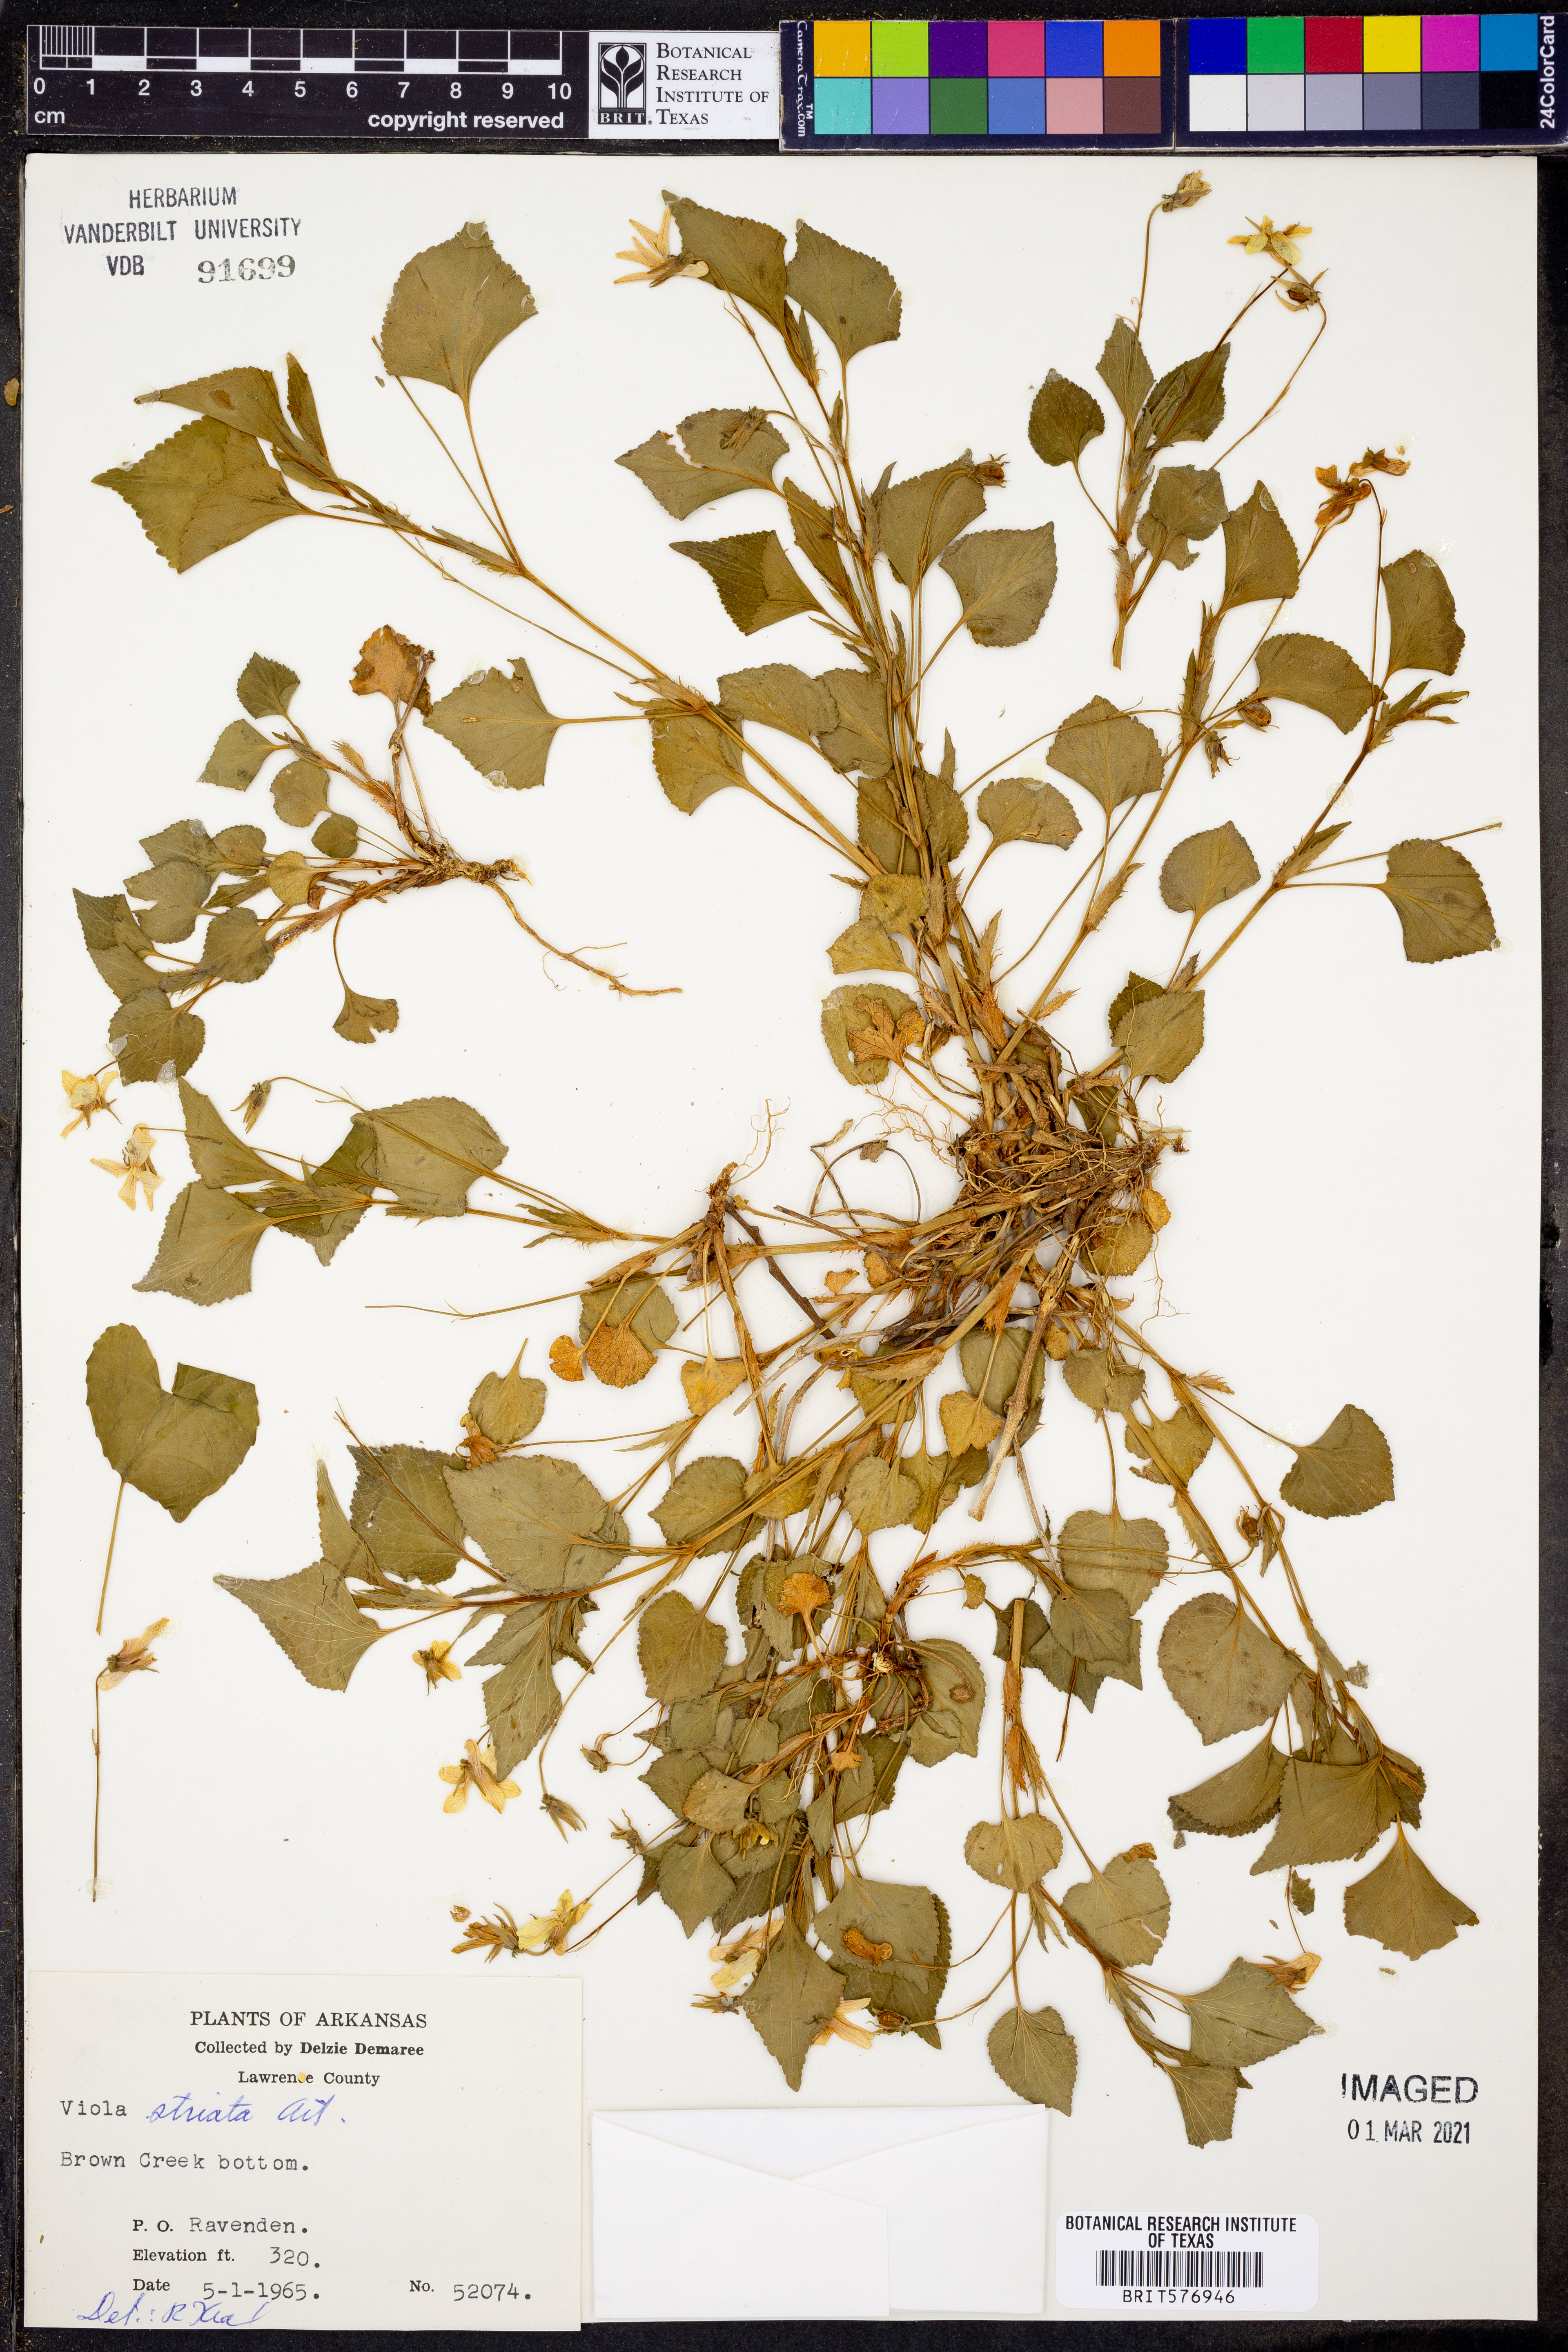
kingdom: Plantae
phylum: Tracheophyta
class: Magnoliopsida
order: Malpighiales
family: Violaceae
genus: Viola
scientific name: Viola striata
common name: Cream violet
